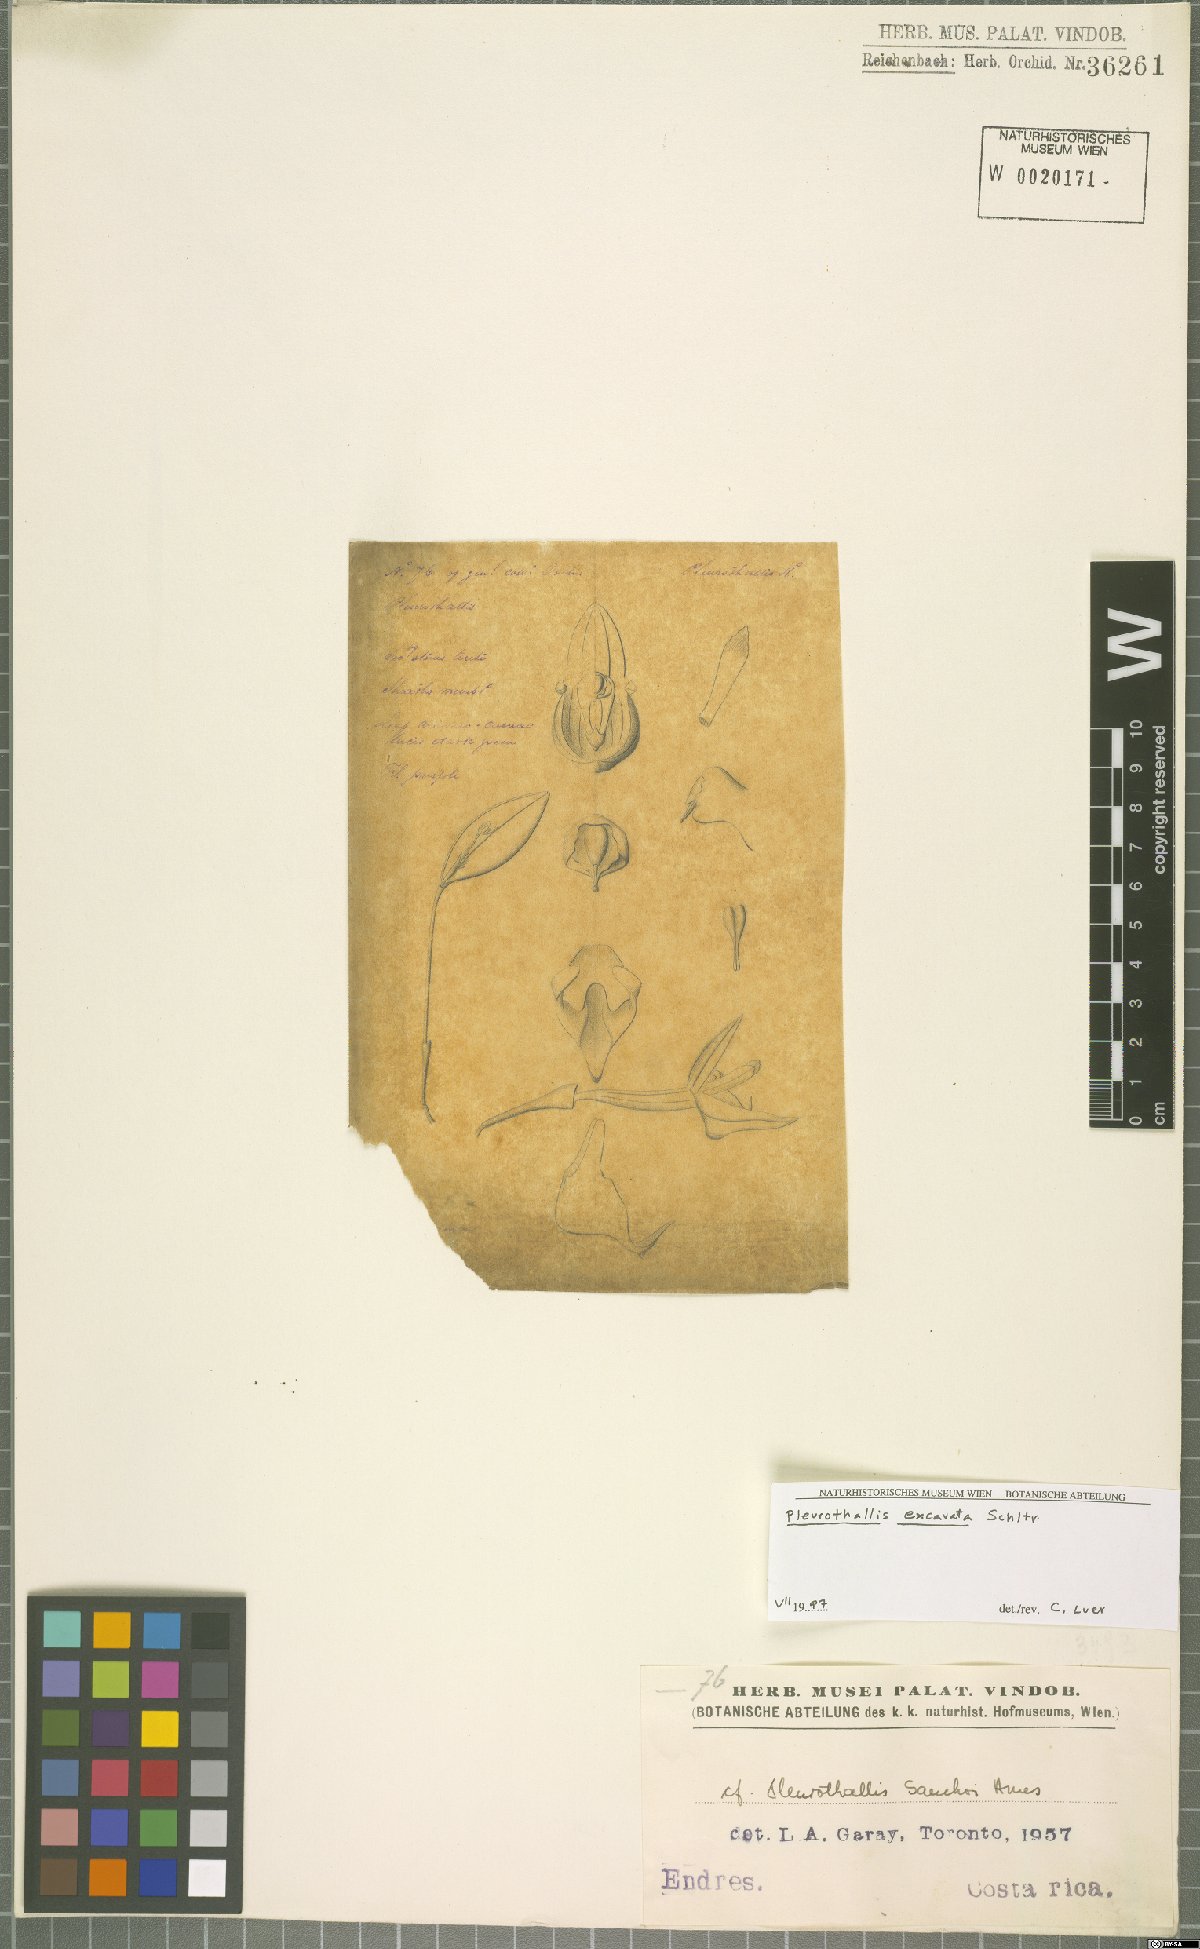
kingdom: Plantae
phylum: Tracheophyta
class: Liliopsida
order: Asparagales
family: Orchidaceae
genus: Pleurothallis
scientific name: Pleurothallis excavata
